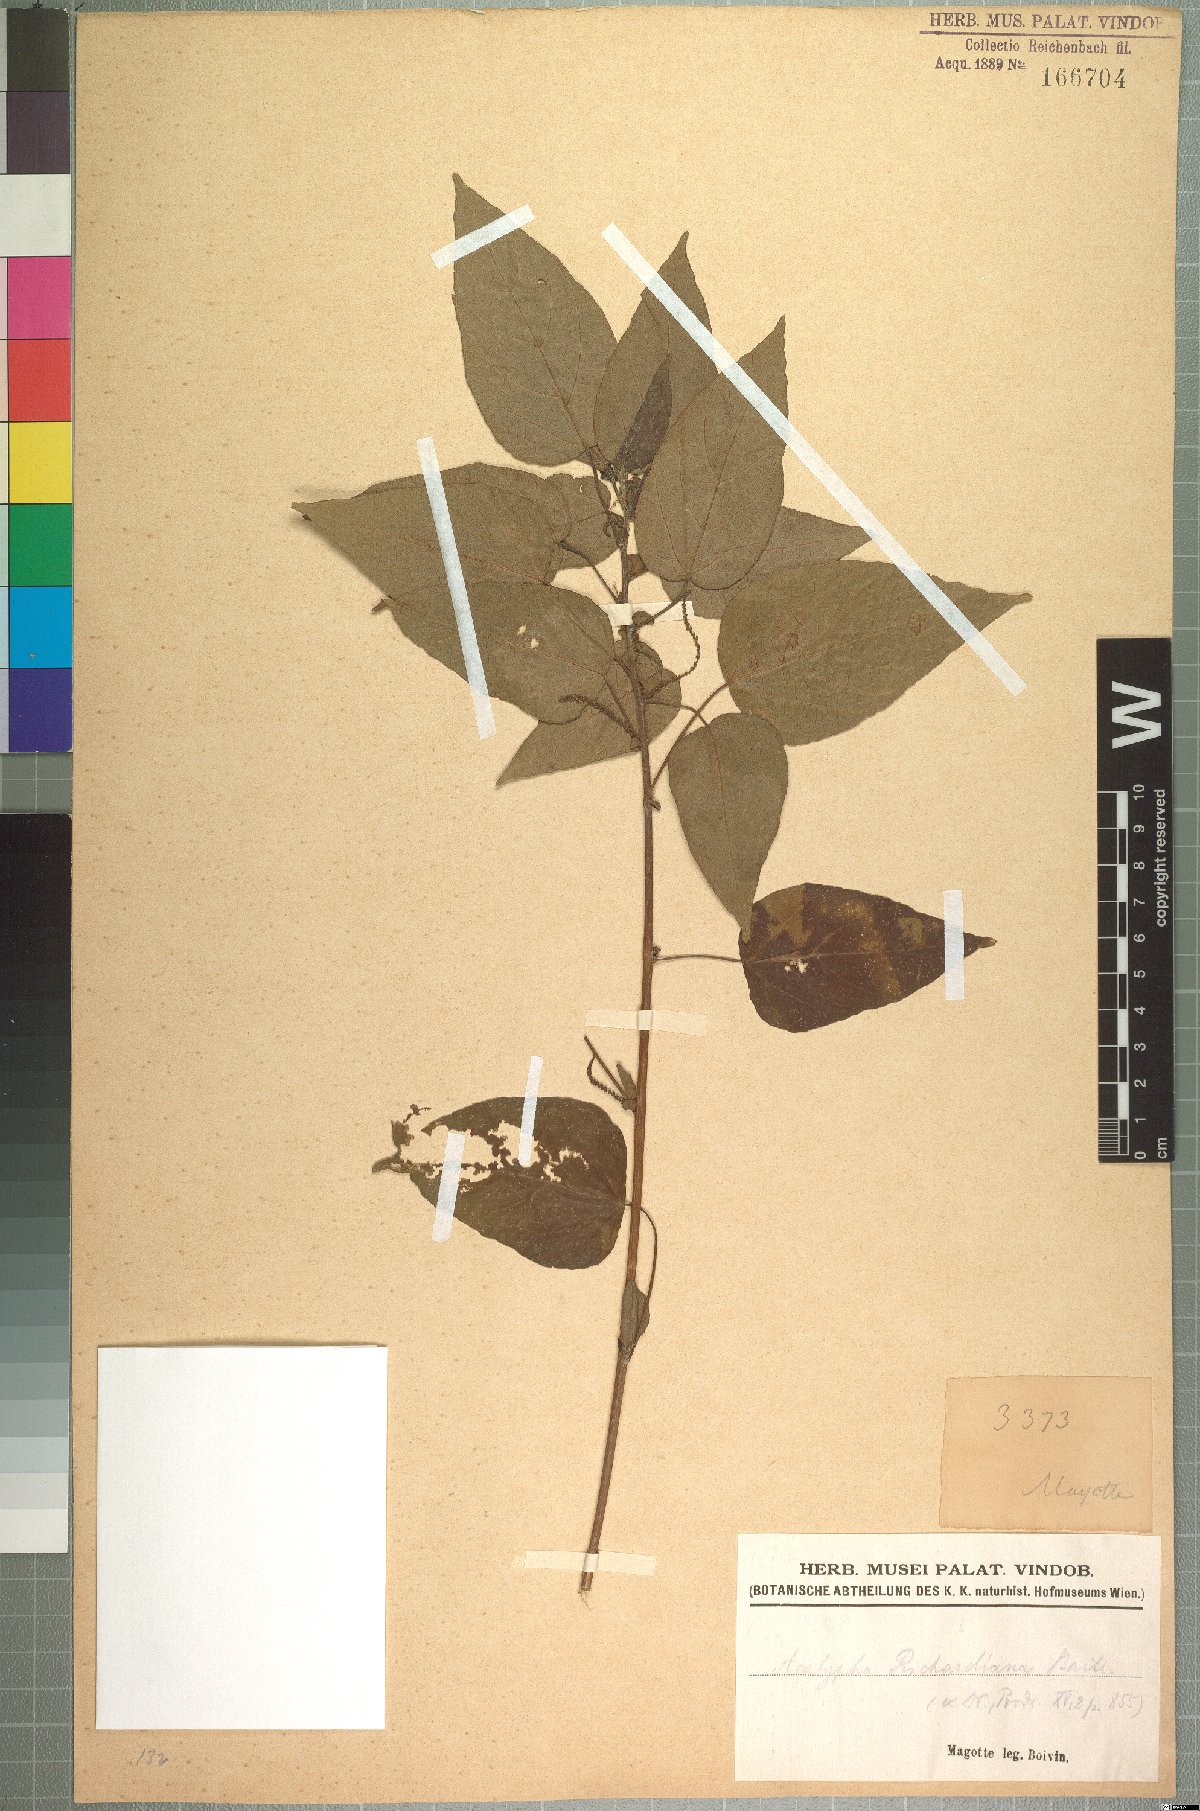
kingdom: Plantae
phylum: Tracheophyta
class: Magnoliopsida
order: Malpighiales
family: Euphorbiaceae
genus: Acalypha
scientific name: Acalypha richardiana
